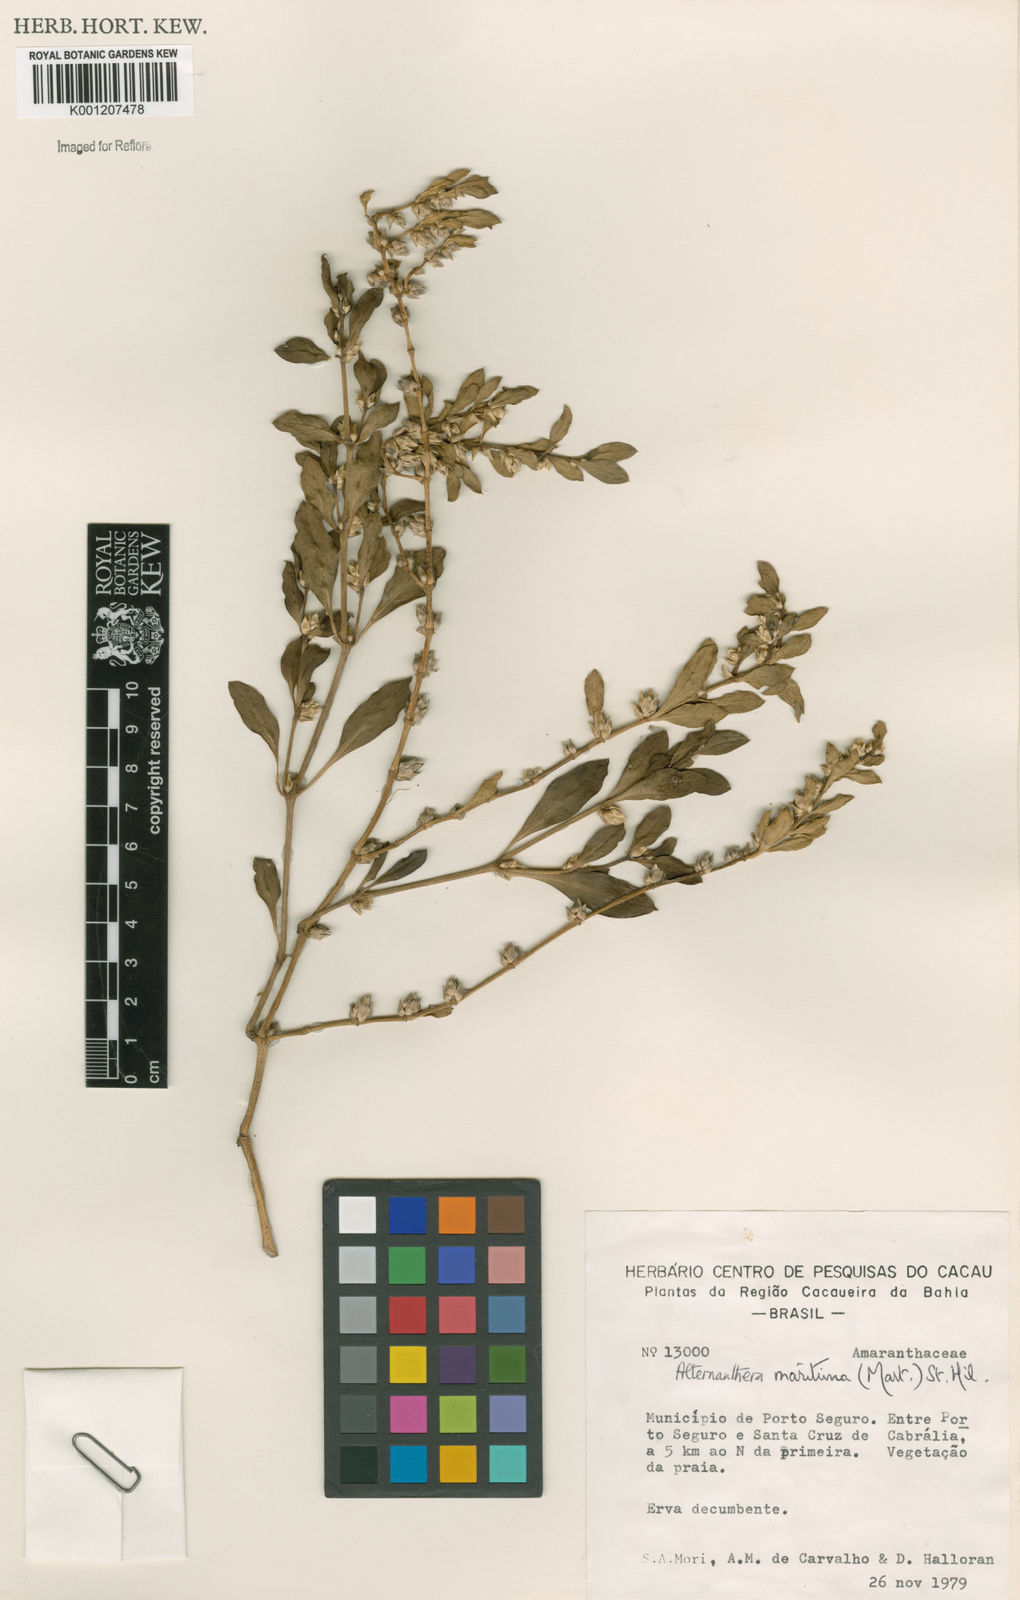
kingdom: Plantae
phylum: Tracheophyta
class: Magnoliopsida
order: Caryophyllales
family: Amaranthaceae
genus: Alternanthera
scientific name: Alternanthera littoralis
